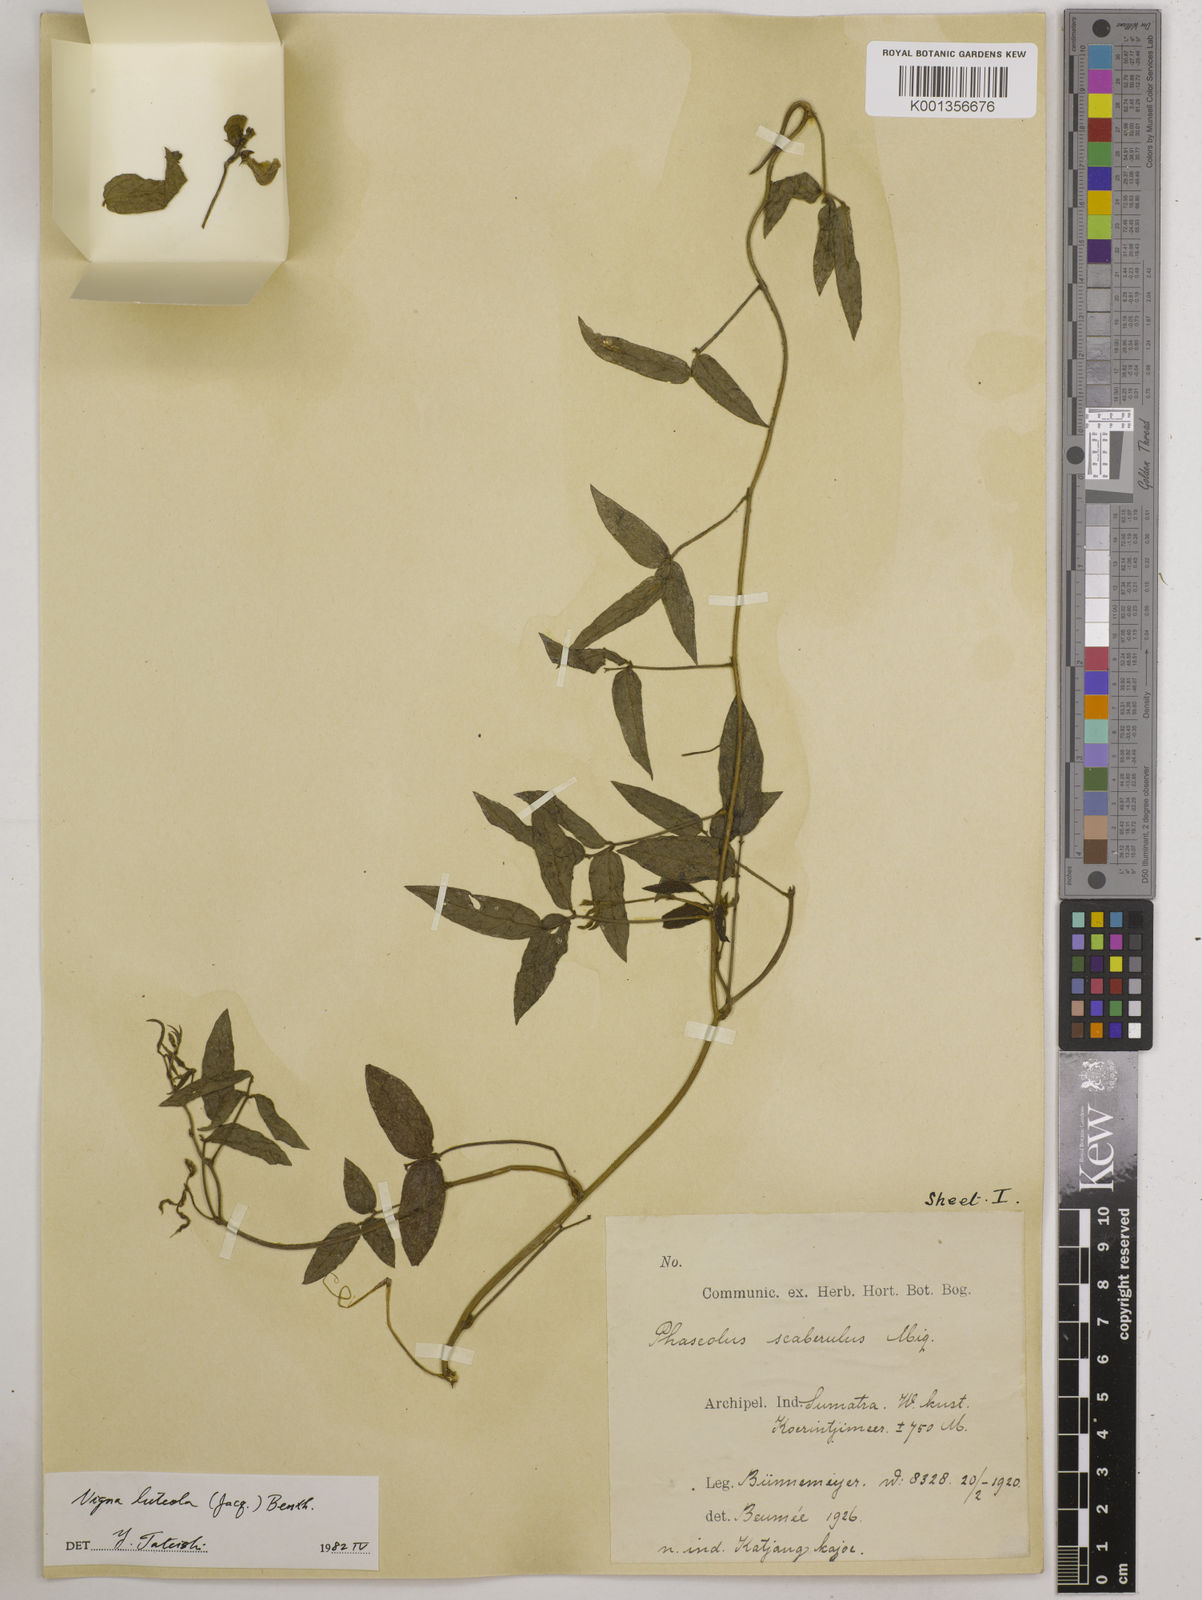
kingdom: Plantae
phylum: Tracheophyta
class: Magnoliopsida
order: Fabales
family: Fabaceae
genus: Vigna
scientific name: Vigna luteola
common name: Hairypod cowpea
